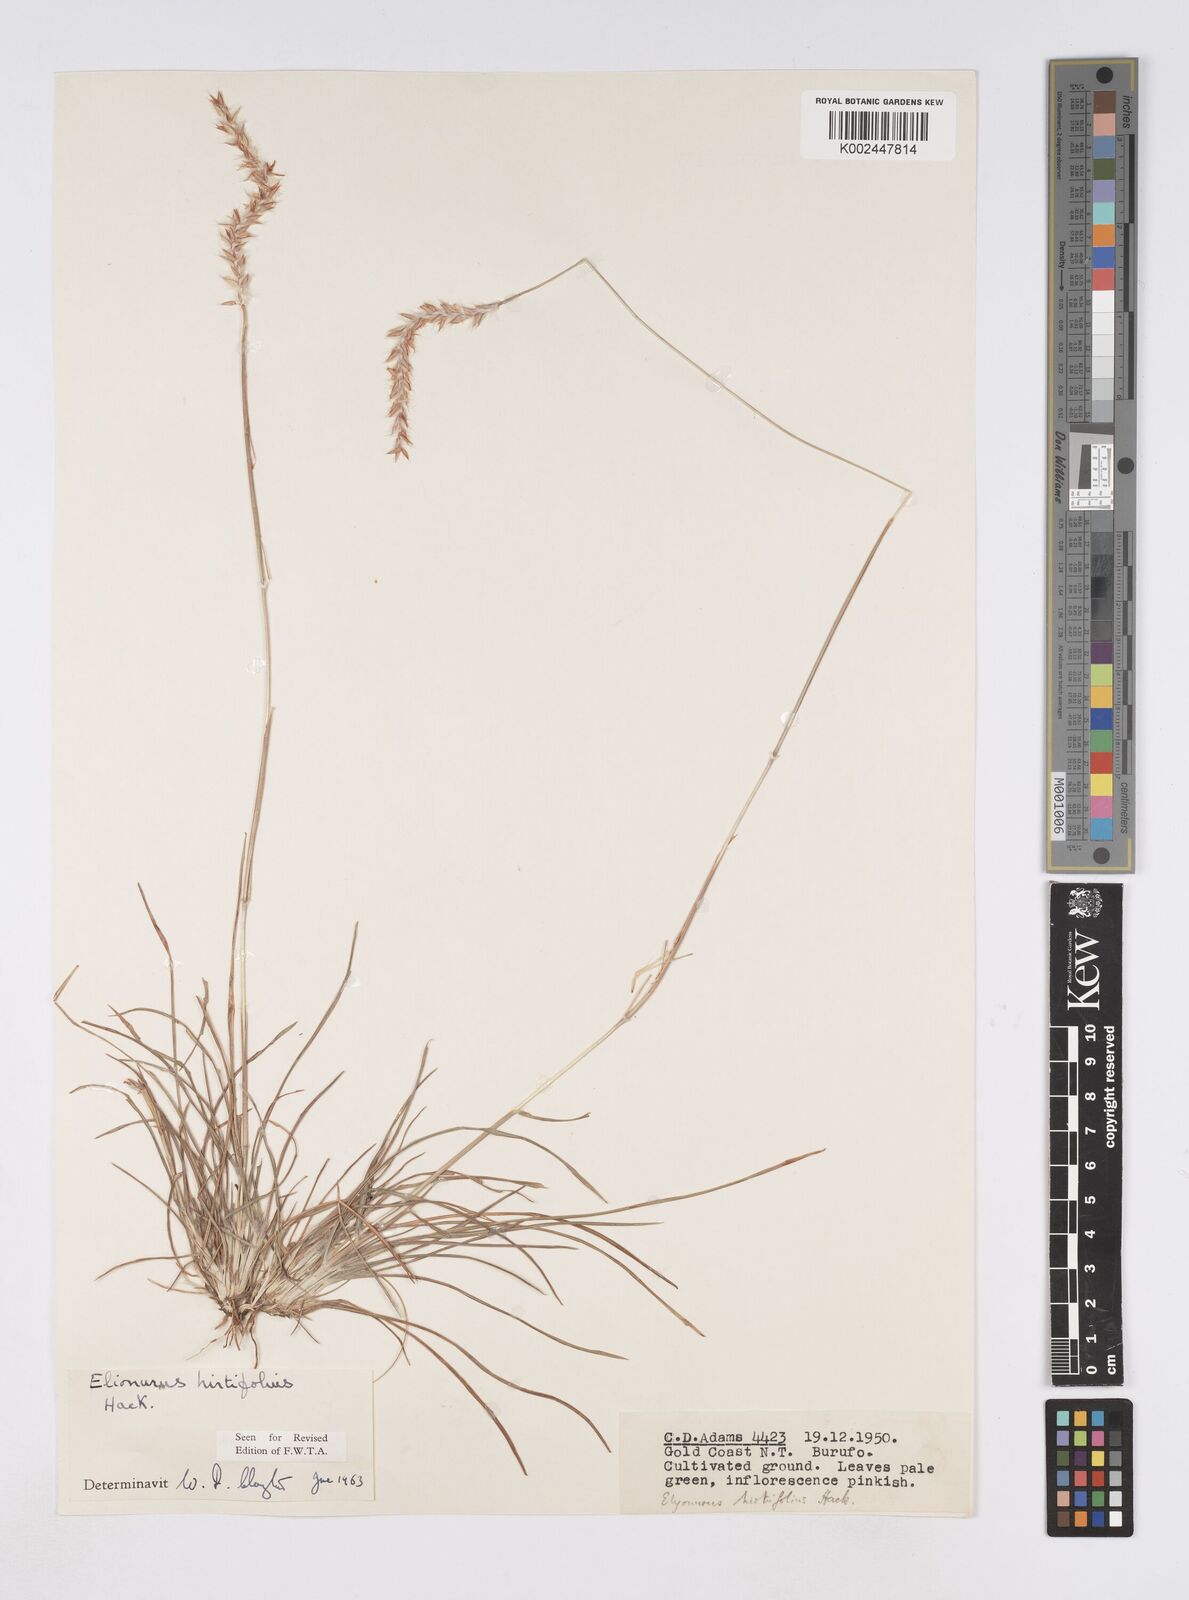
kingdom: Plantae
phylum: Tracheophyta
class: Liliopsida
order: Poales
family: Poaceae
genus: Elionurus
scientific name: Elionurus hirtifolius
